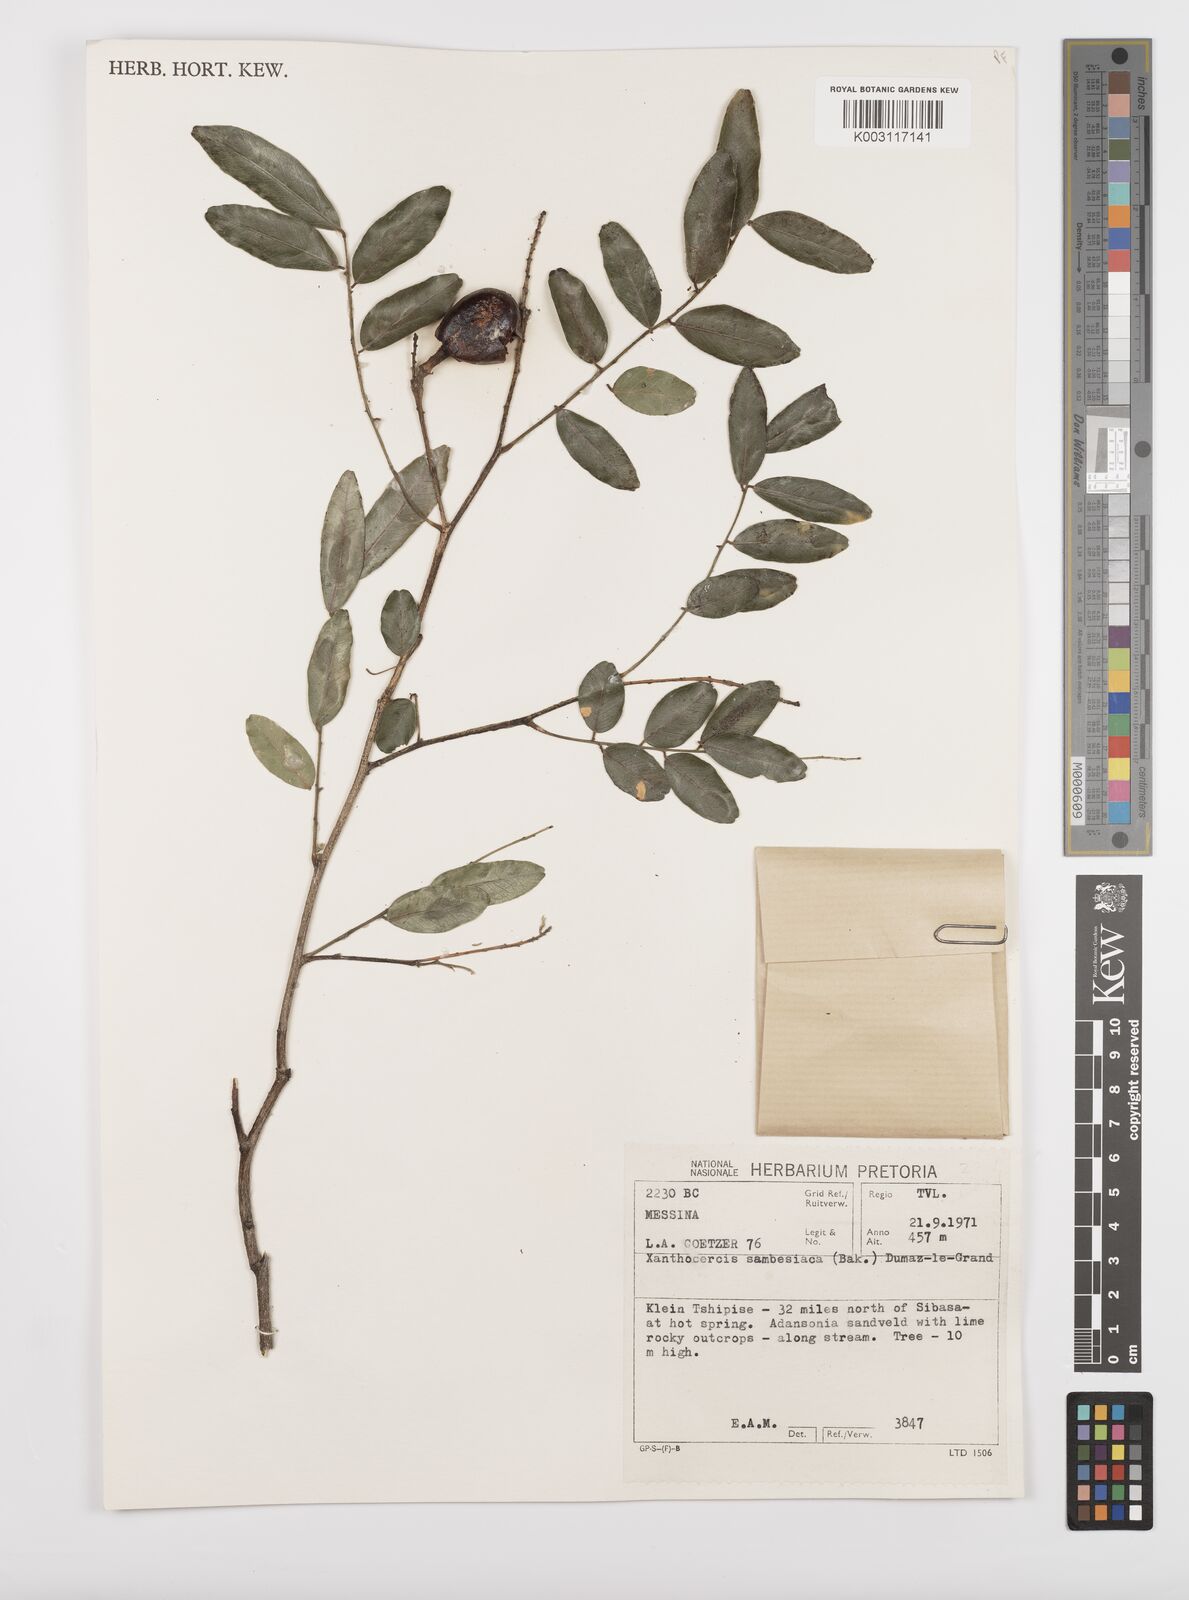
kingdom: Plantae
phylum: Tracheophyta
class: Magnoliopsida
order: Fabales
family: Fabaceae
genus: Xanthocercis
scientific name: Xanthocercis zambesiaca
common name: Nyala-tree
